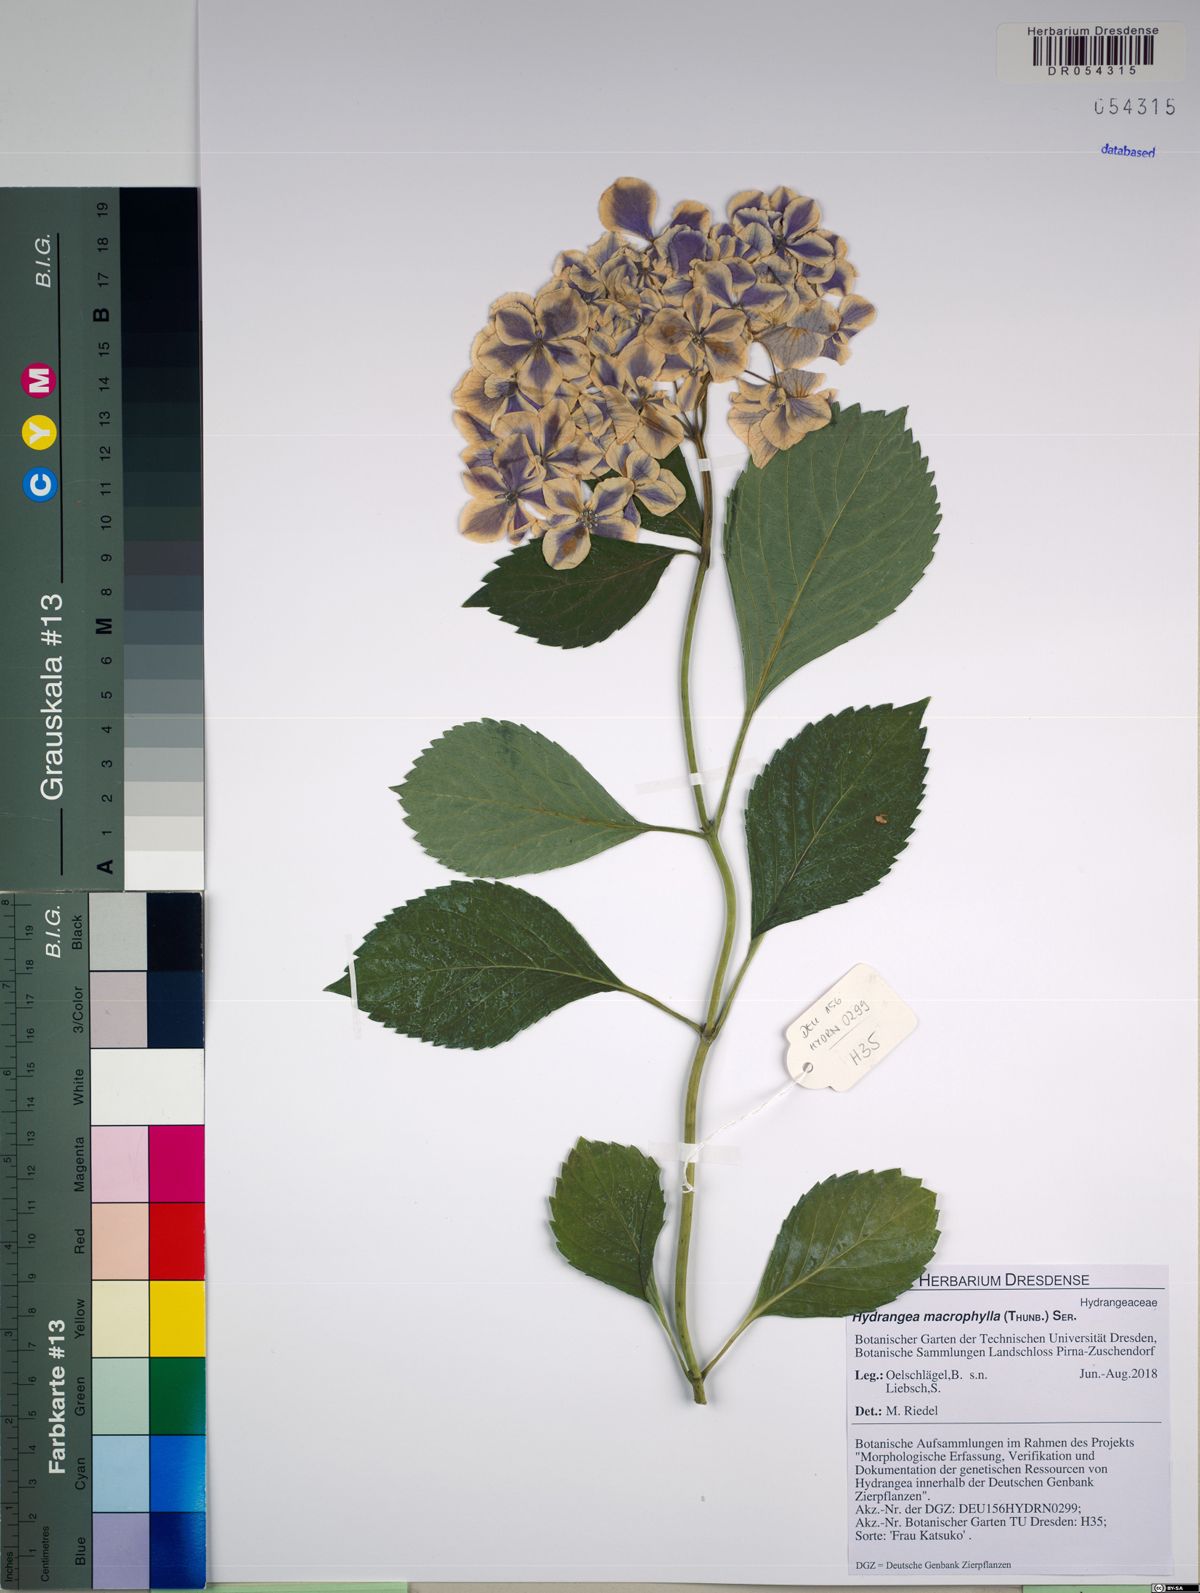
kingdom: Plantae
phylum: Tracheophyta
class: Magnoliopsida
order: Cornales
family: Hydrangeaceae
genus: Hydrangea
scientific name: Hydrangea macrophylla
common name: Hydrangea
